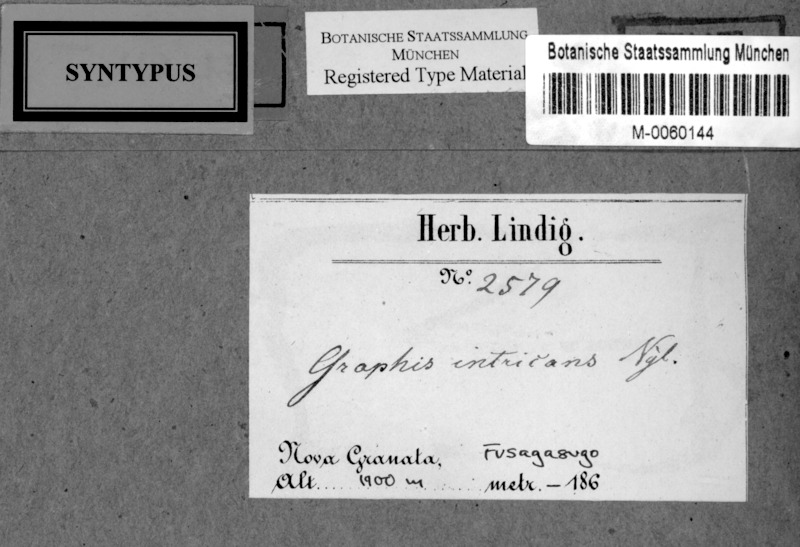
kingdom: Fungi
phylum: Ascomycota
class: Lecanoromycetes
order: Ostropales
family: Graphidaceae
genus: Sarcographa
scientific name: Sarcographa intricans
